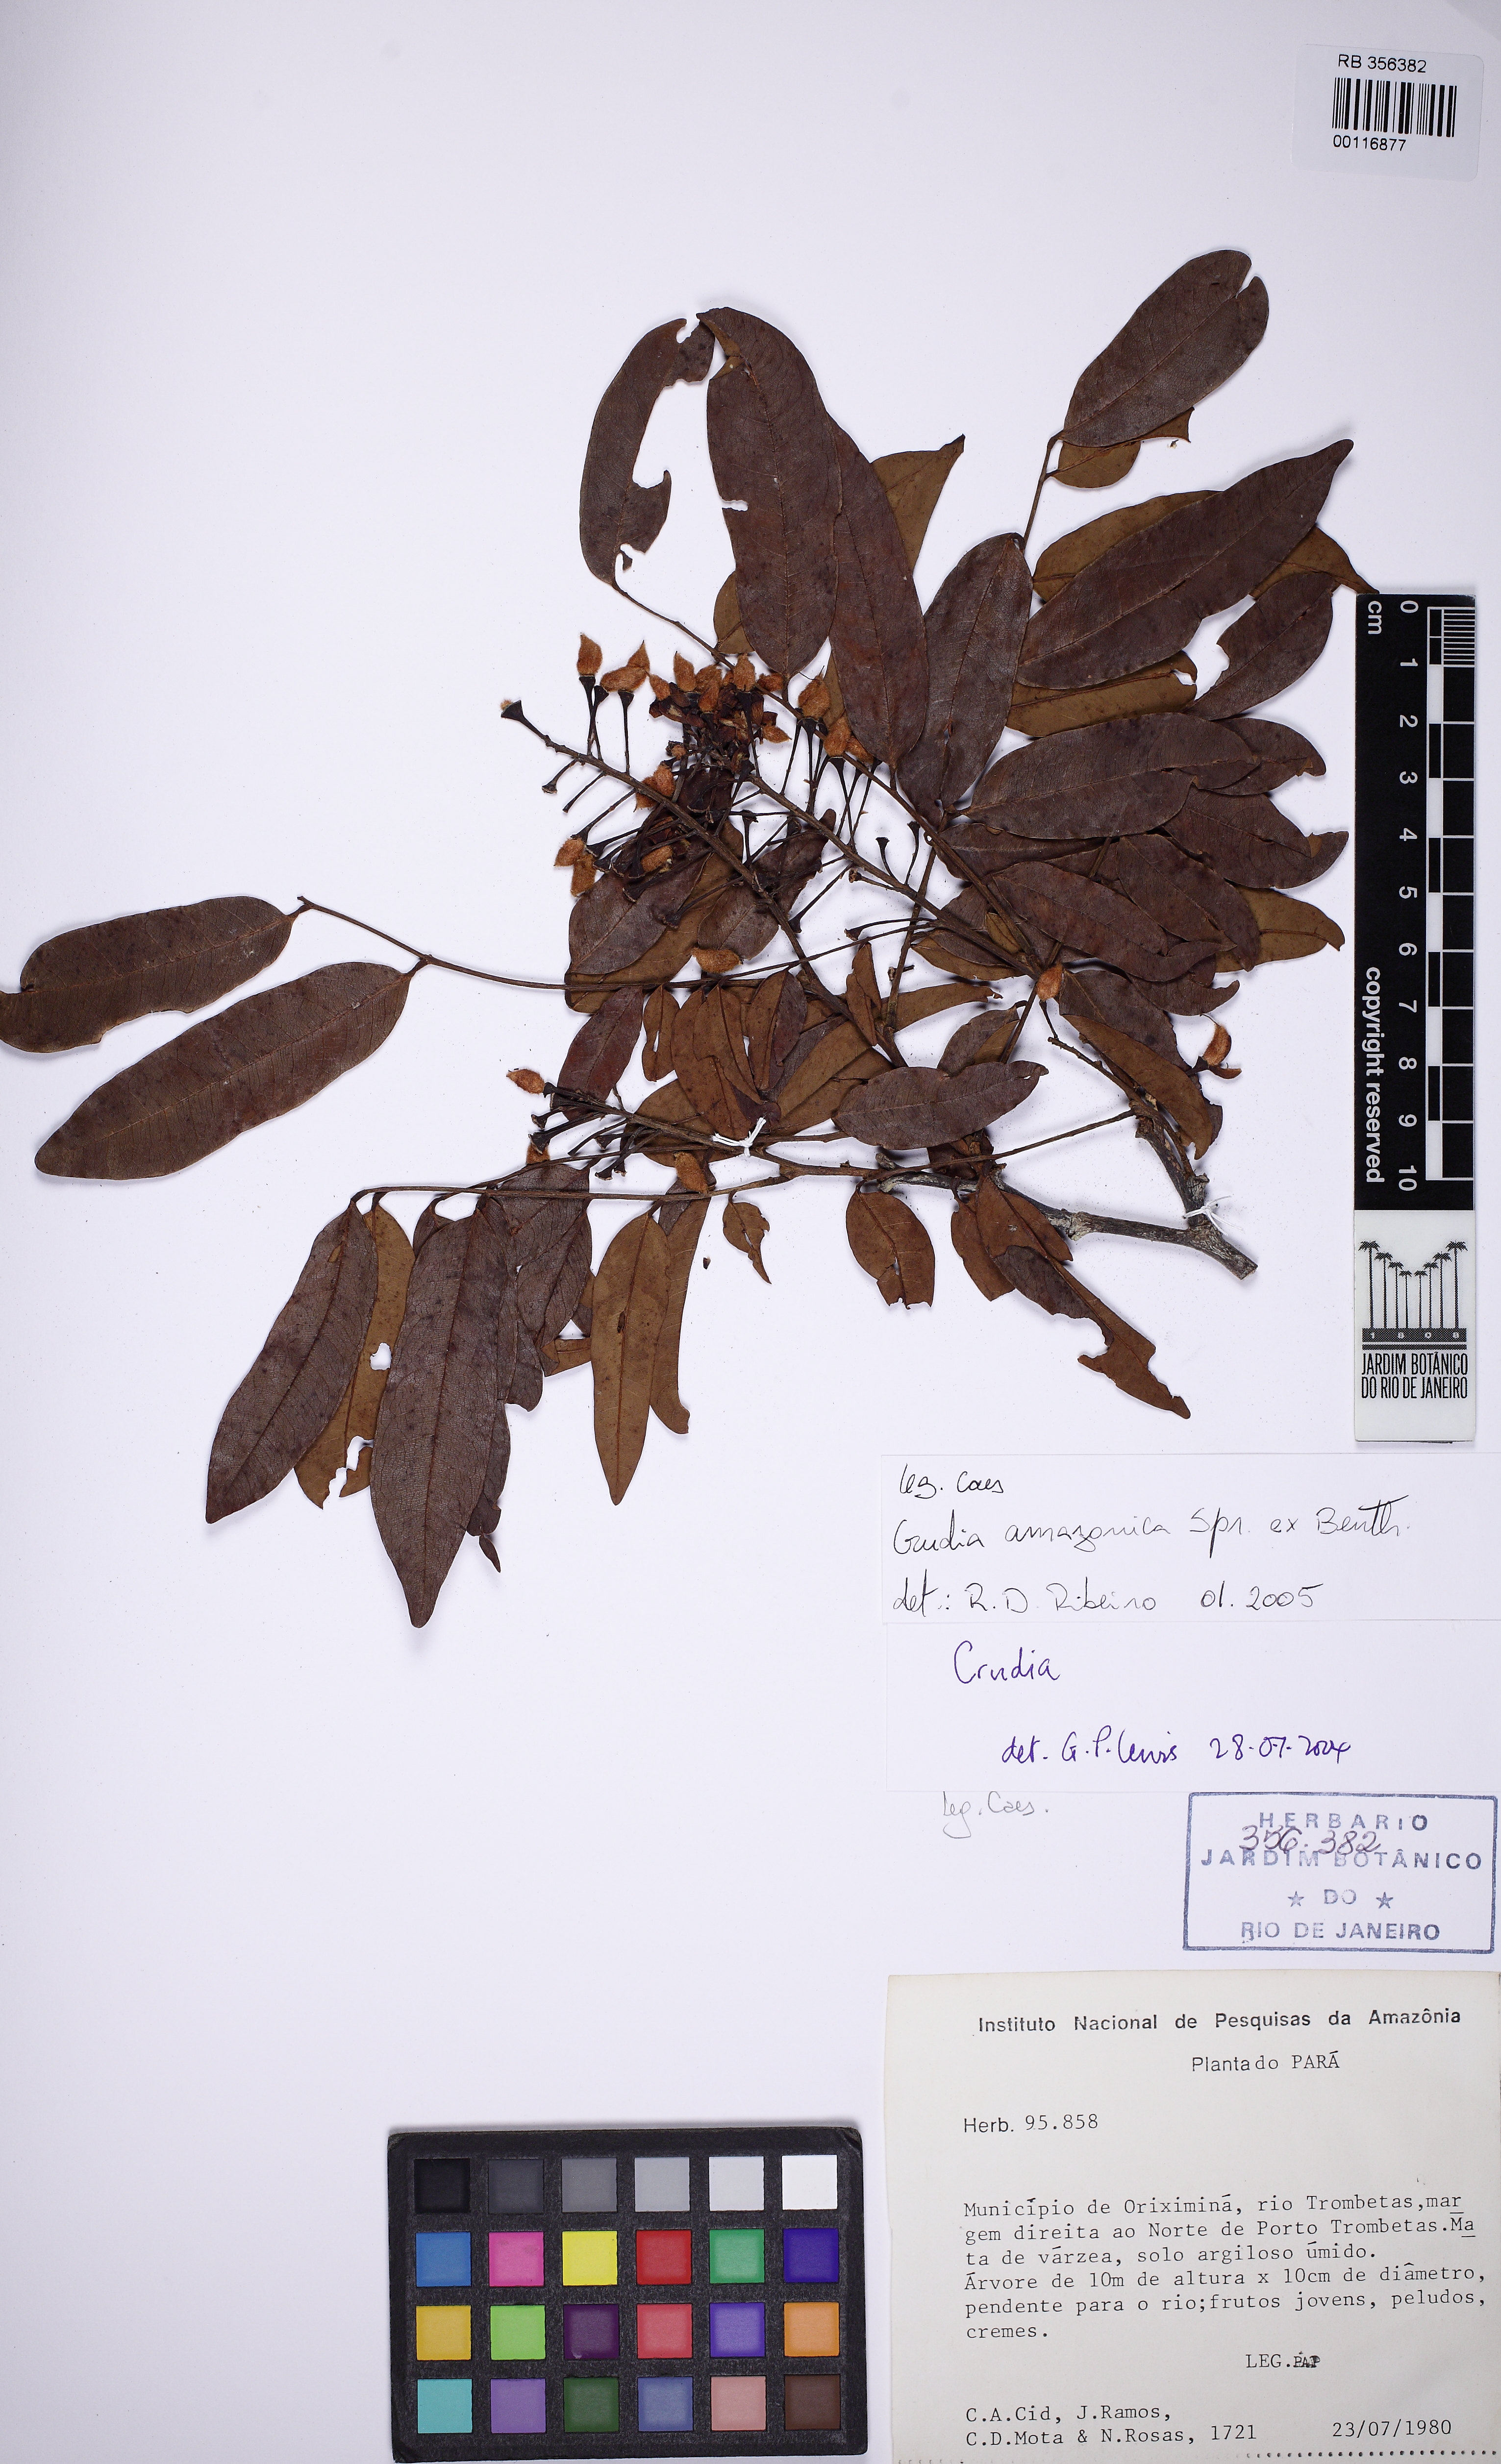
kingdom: Plantae
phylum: Tracheophyta
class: Magnoliopsida
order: Fabales
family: Fabaceae
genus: Crudia
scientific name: Crudia amazonica
